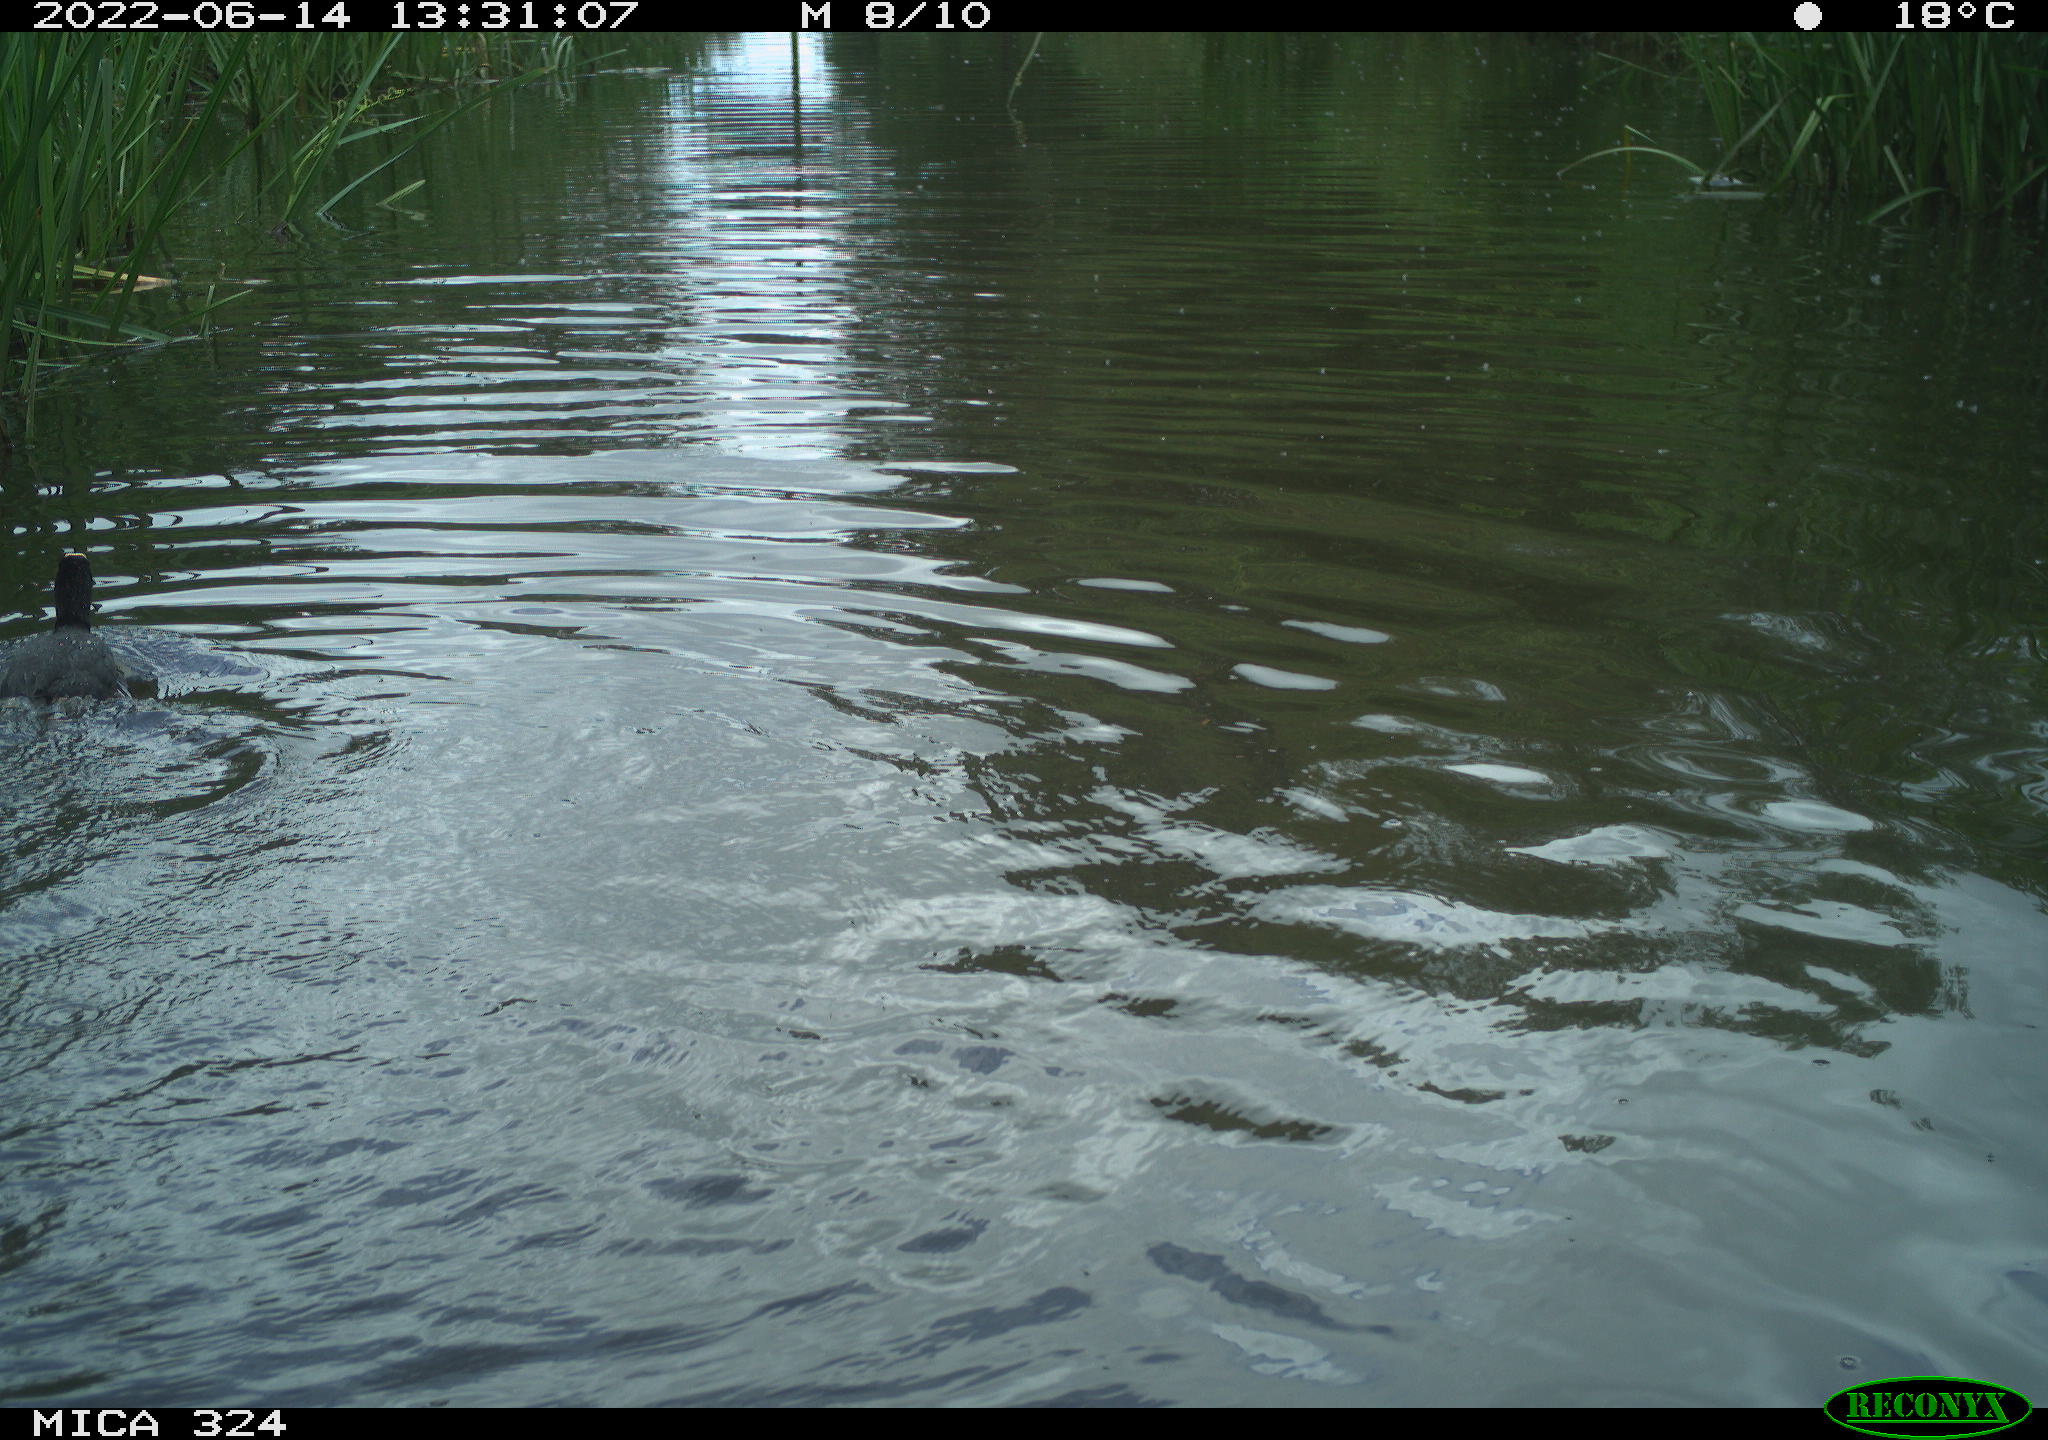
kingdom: Animalia
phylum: Chordata
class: Aves
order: Gruiformes
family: Rallidae
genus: Fulica
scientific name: Fulica atra
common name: Eurasian coot
